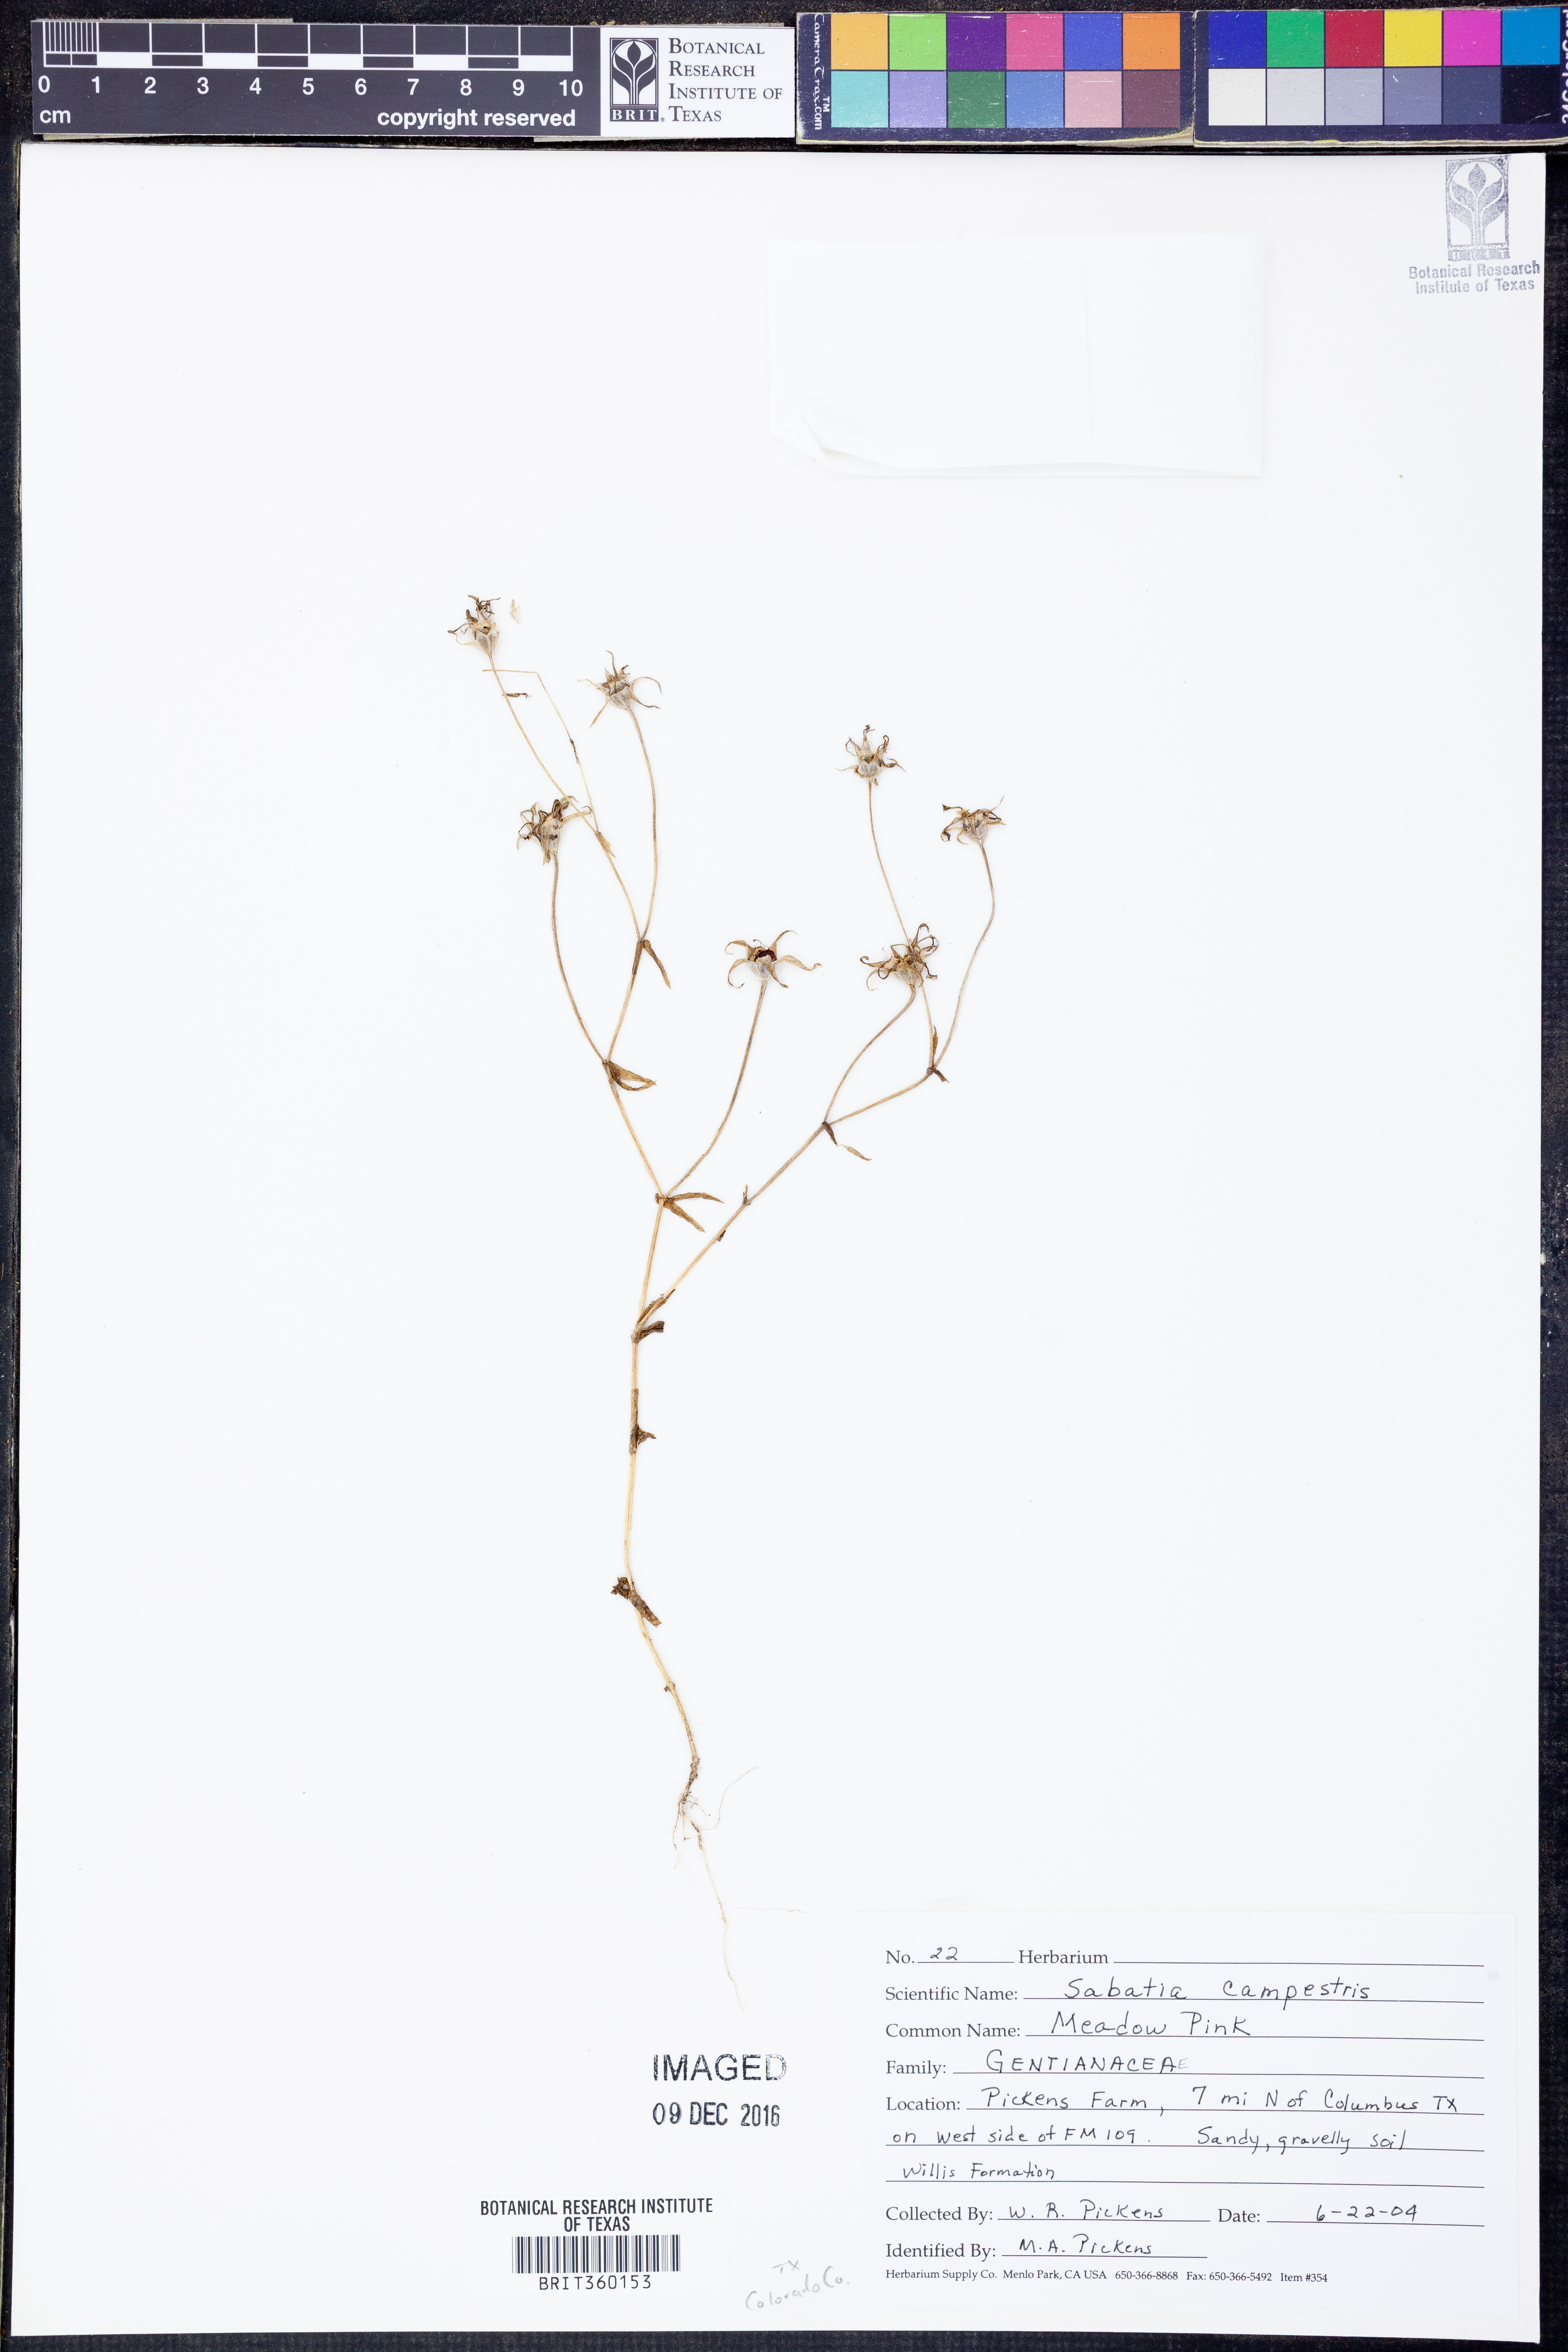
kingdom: Plantae
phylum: Tracheophyta
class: Magnoliopsida
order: Gentianales
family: Gentianaceae
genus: Sabatia
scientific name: Sabatia campestris
